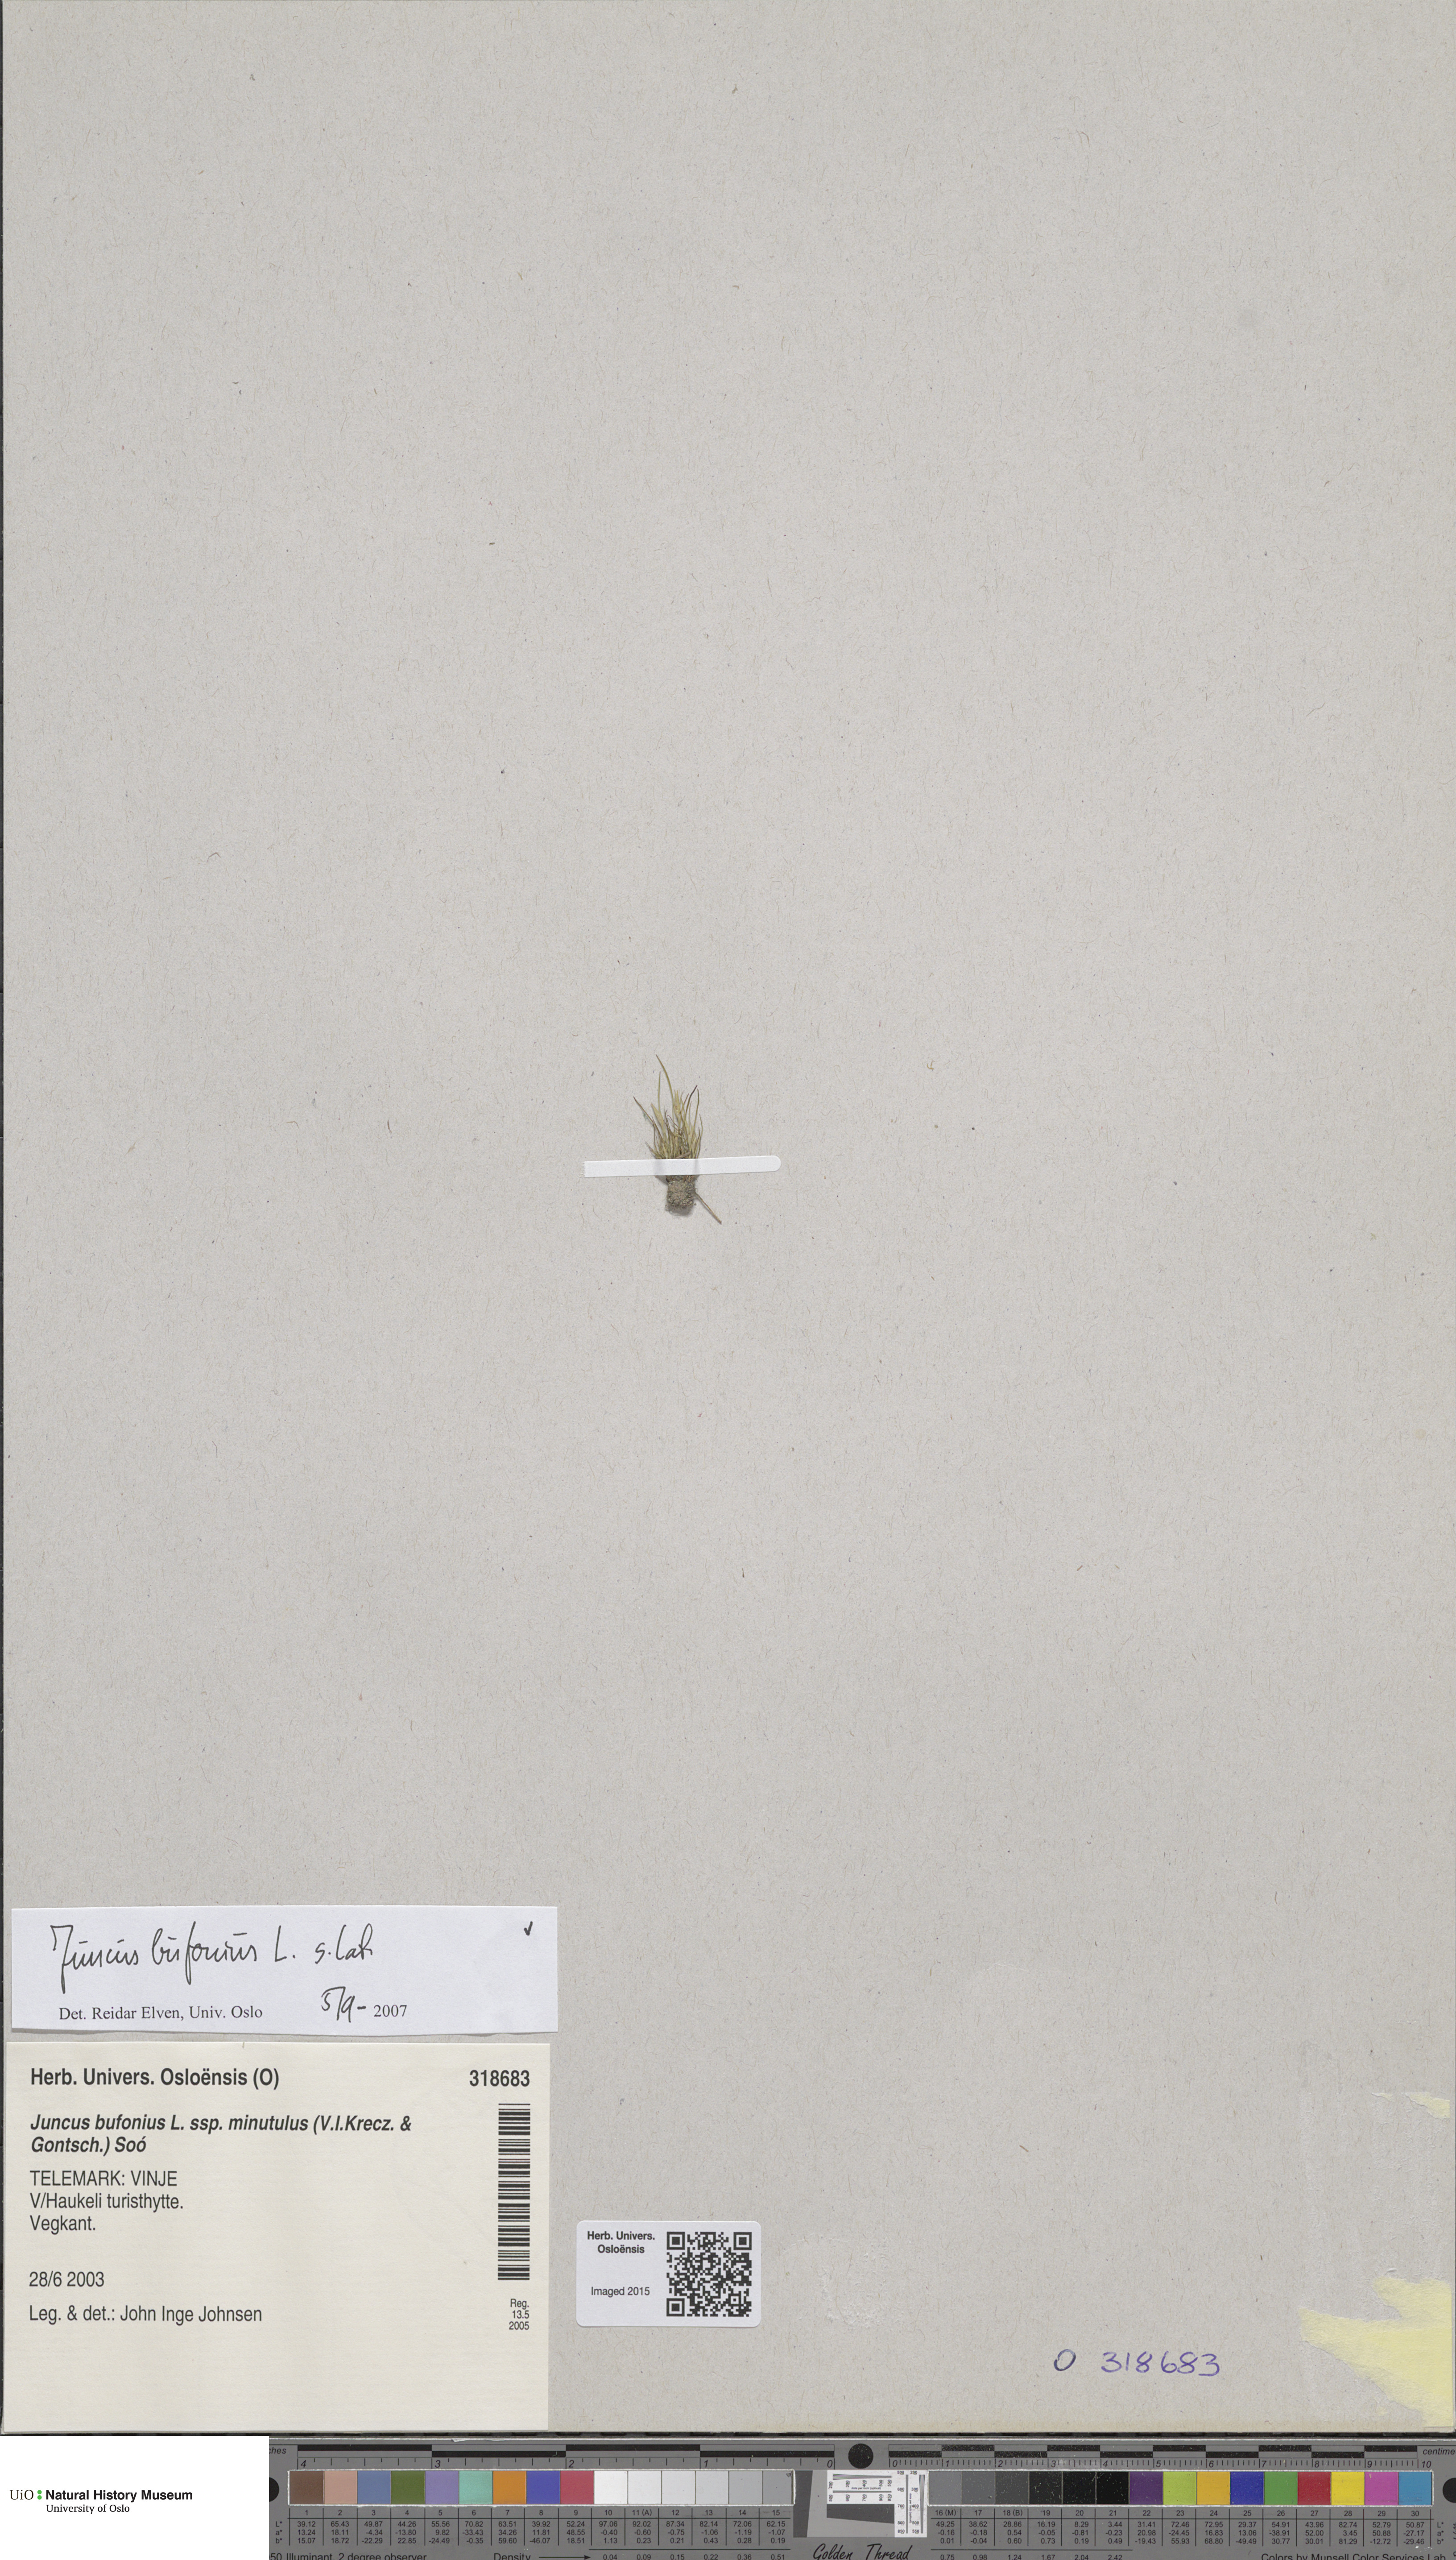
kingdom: Plantae
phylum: Tracheophyta
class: Liliopsida
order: Poales
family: Juncaceae
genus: Juncus
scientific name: Juncus bufonius
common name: Toad rush
